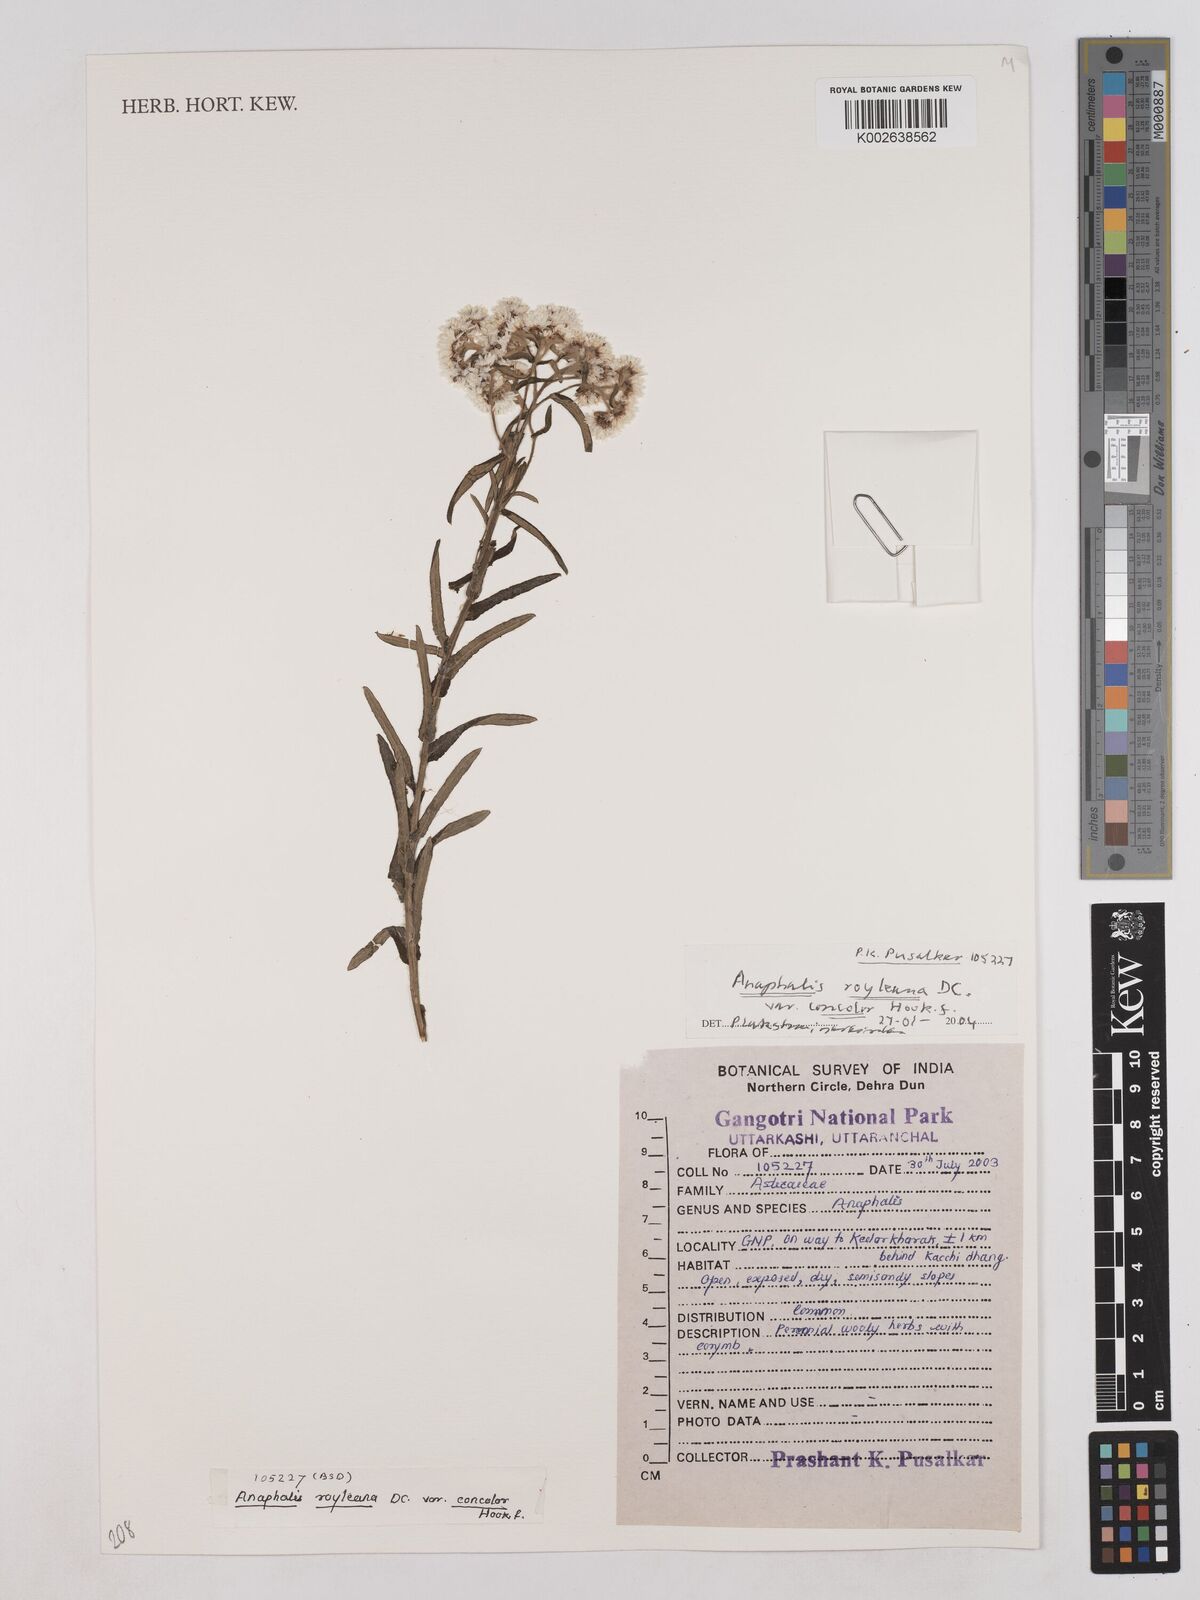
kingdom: Plantae
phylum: Tracheophyta
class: Magnoliopsida
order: Asterales
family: Asteraceae
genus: Anaphalis
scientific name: Anaphalis royleana
